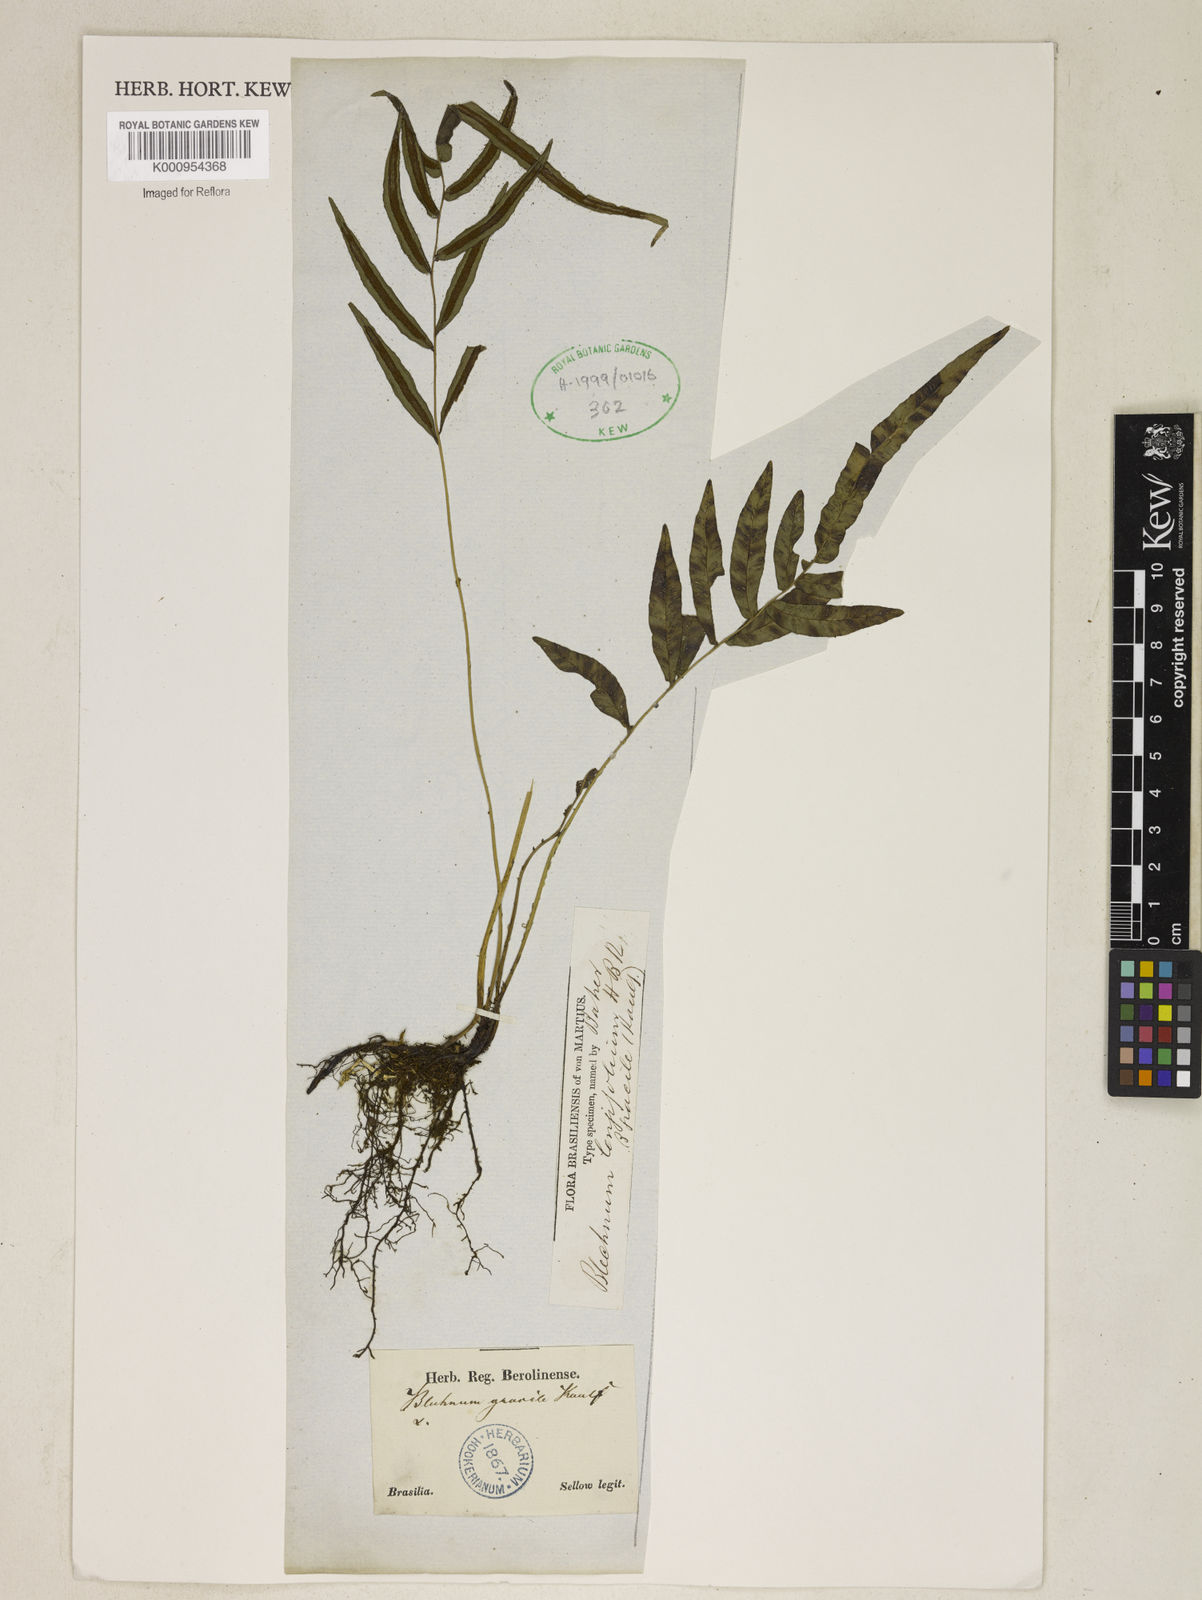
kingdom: Plantae
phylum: Tracheophyta
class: Polypodiopsida
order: Polypodiales
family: Blechnaceae
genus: Blechnum
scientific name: Blechnum gracile
